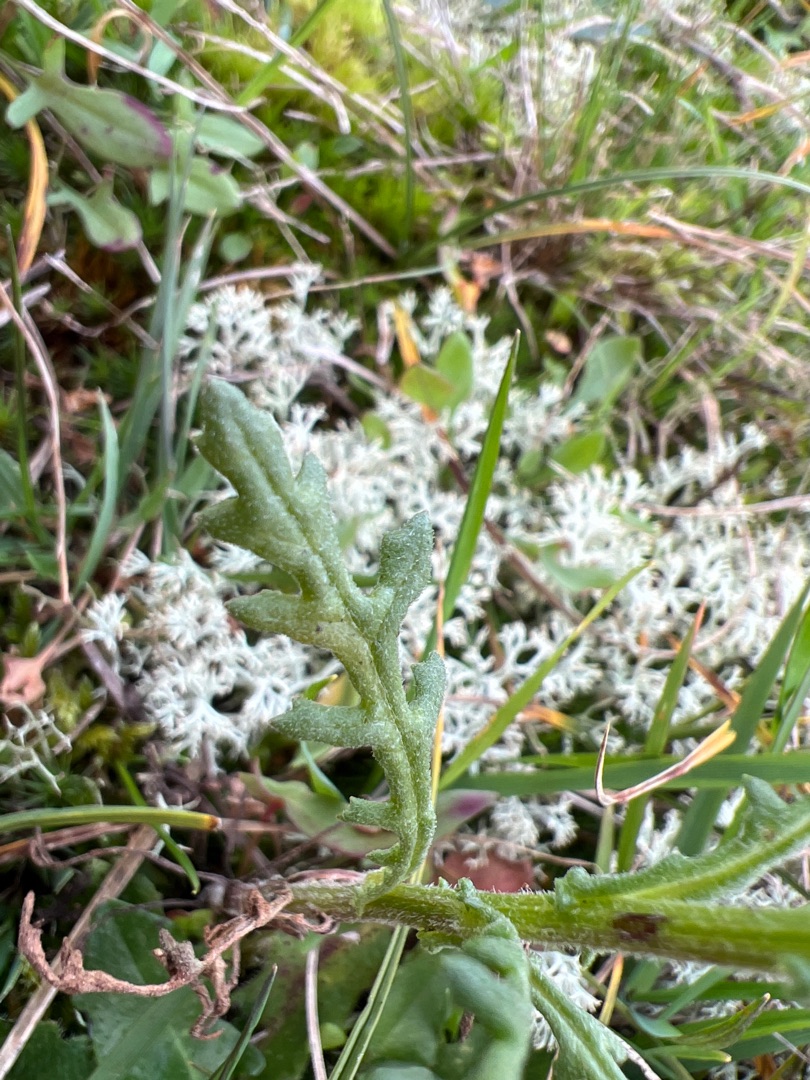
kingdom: Plantae
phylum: Tracheophyta
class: Magnoliopsida
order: Asterales
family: Asteraceae
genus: Senecio
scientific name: Senecio sylvaticus
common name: Skov-brandbæger
